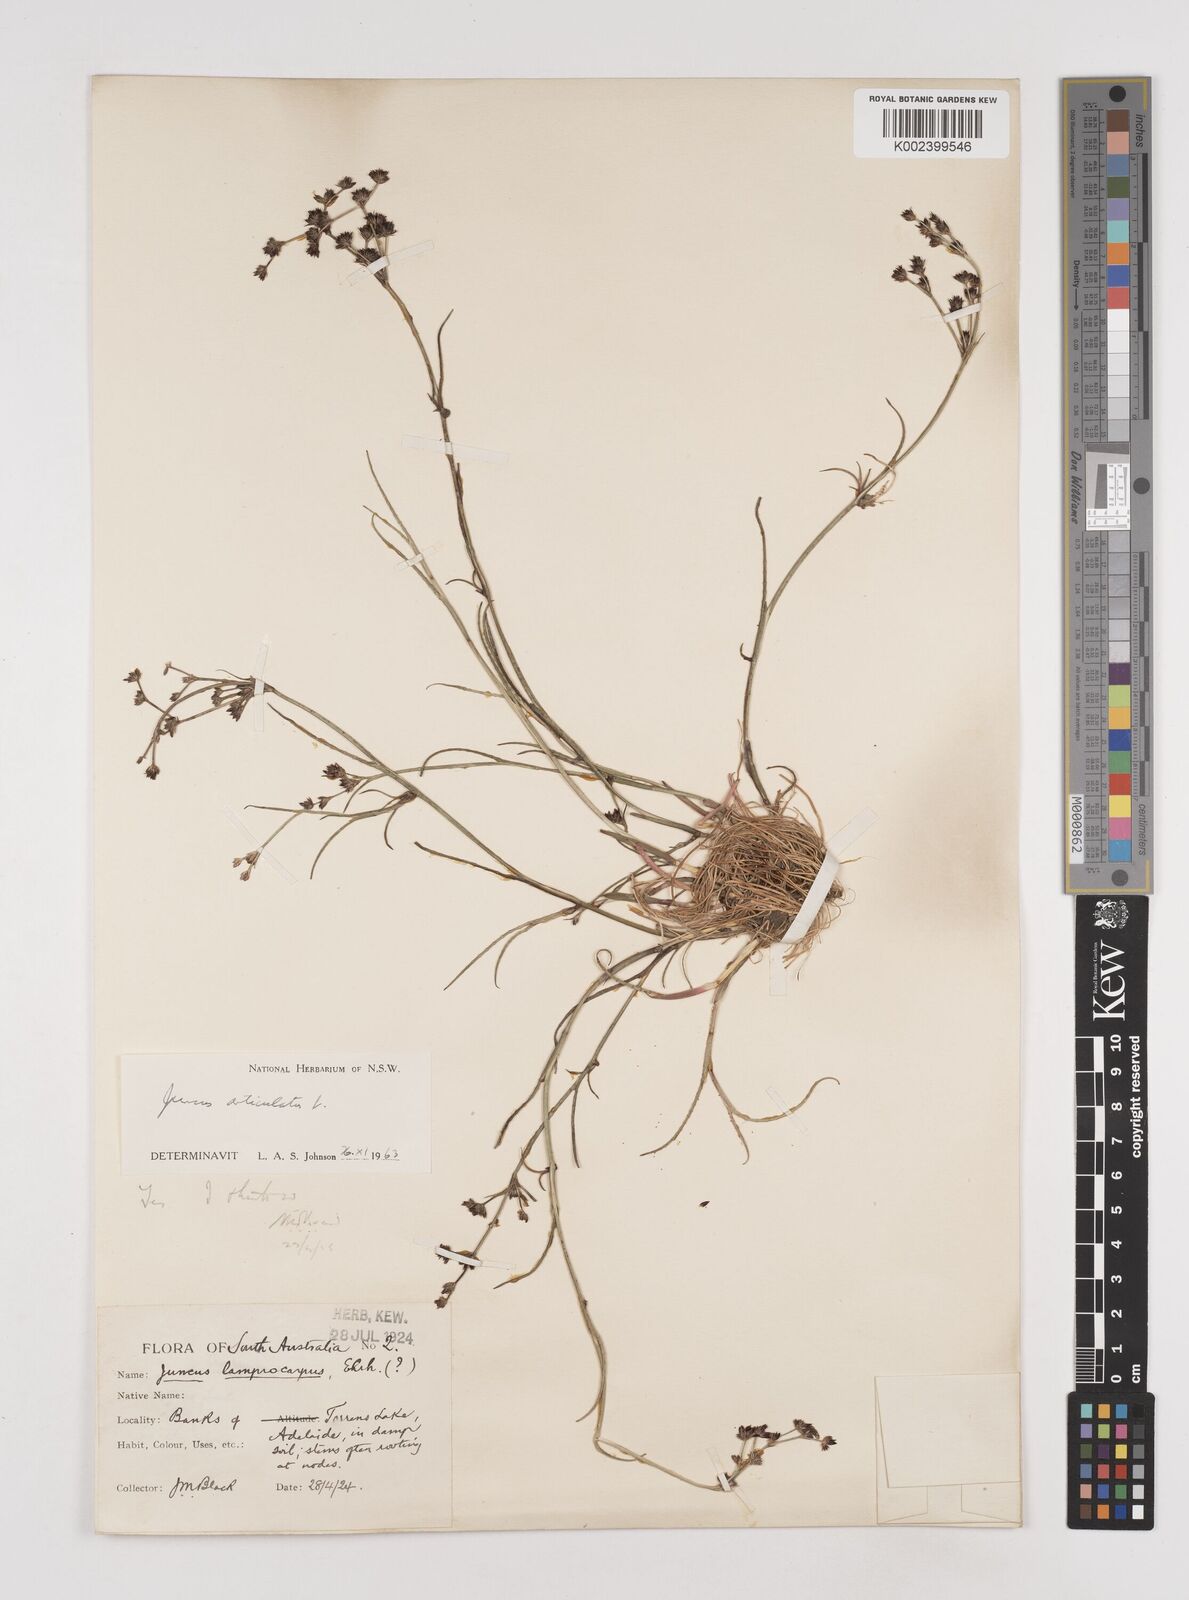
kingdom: Plantae
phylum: Tracheophyta
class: Liliopsida
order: Poales
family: Juncaceae
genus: Juncus
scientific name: Juncus articulatus
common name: Jointed rush
